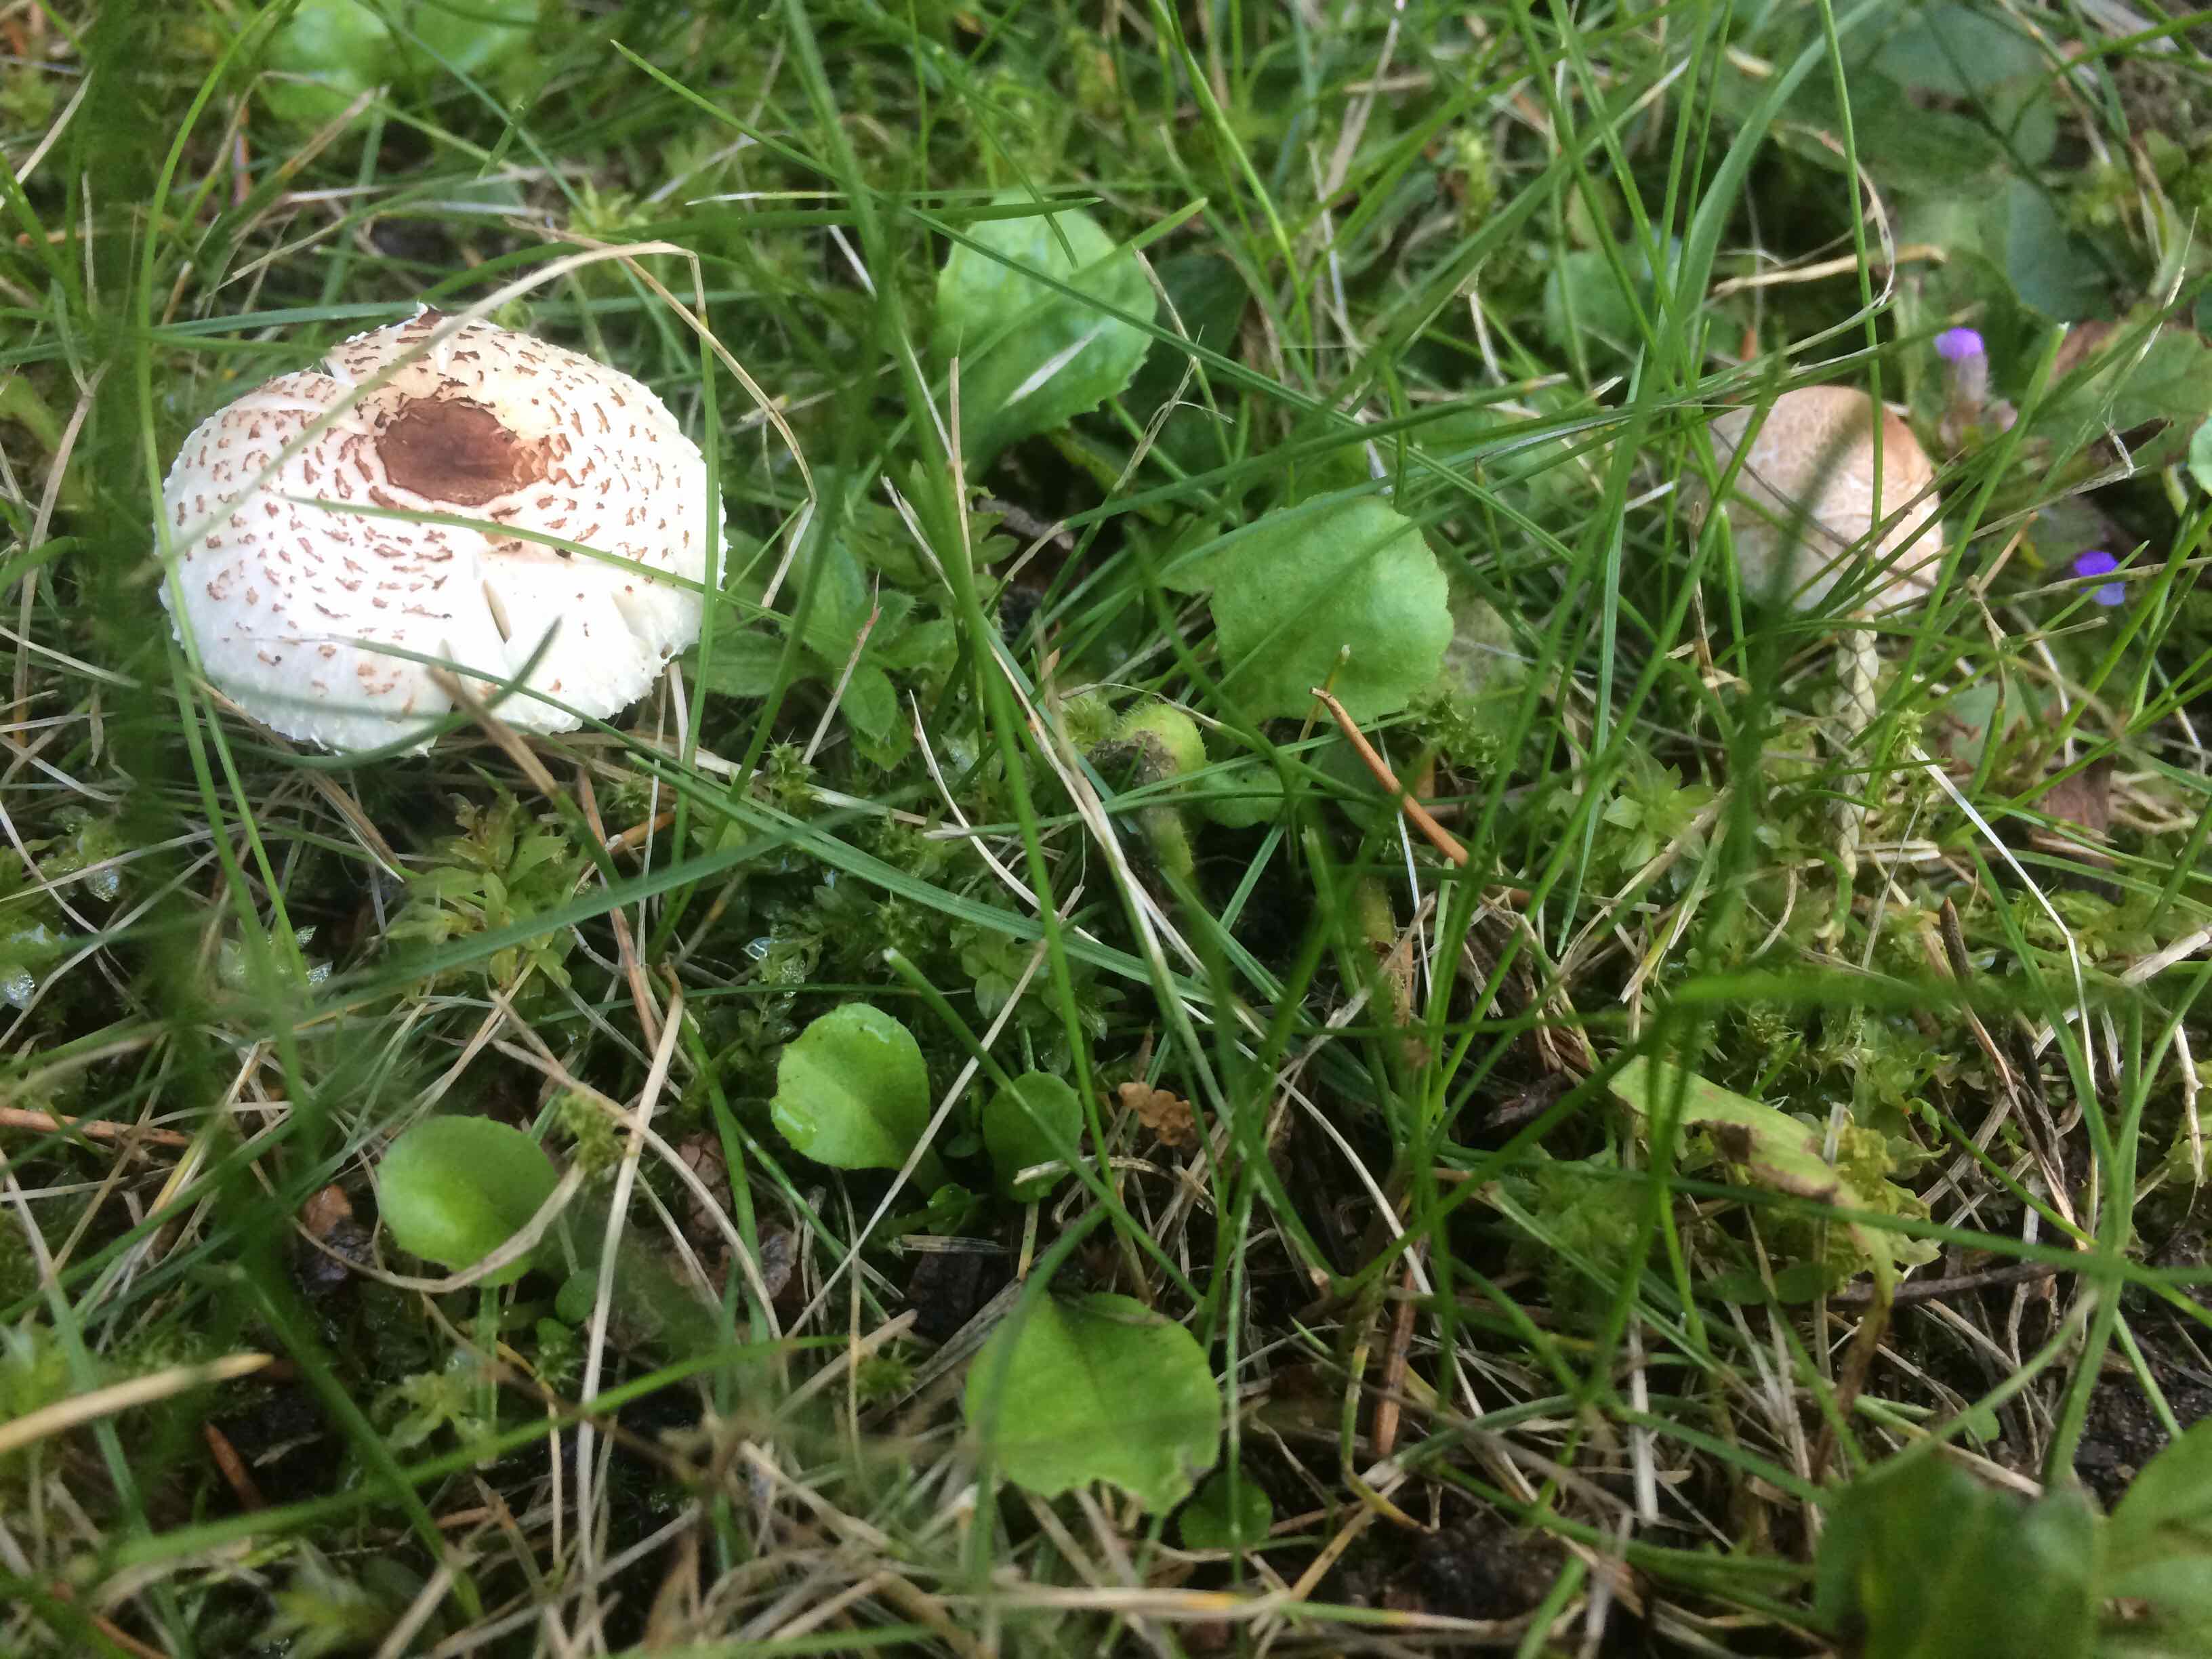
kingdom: Fungi
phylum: Basidiomycota
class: Agaricomycetes
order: Agaricales
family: Agaricaceae
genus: Lepiota
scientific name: Lepiota cristata
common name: stinkende parasolhat
